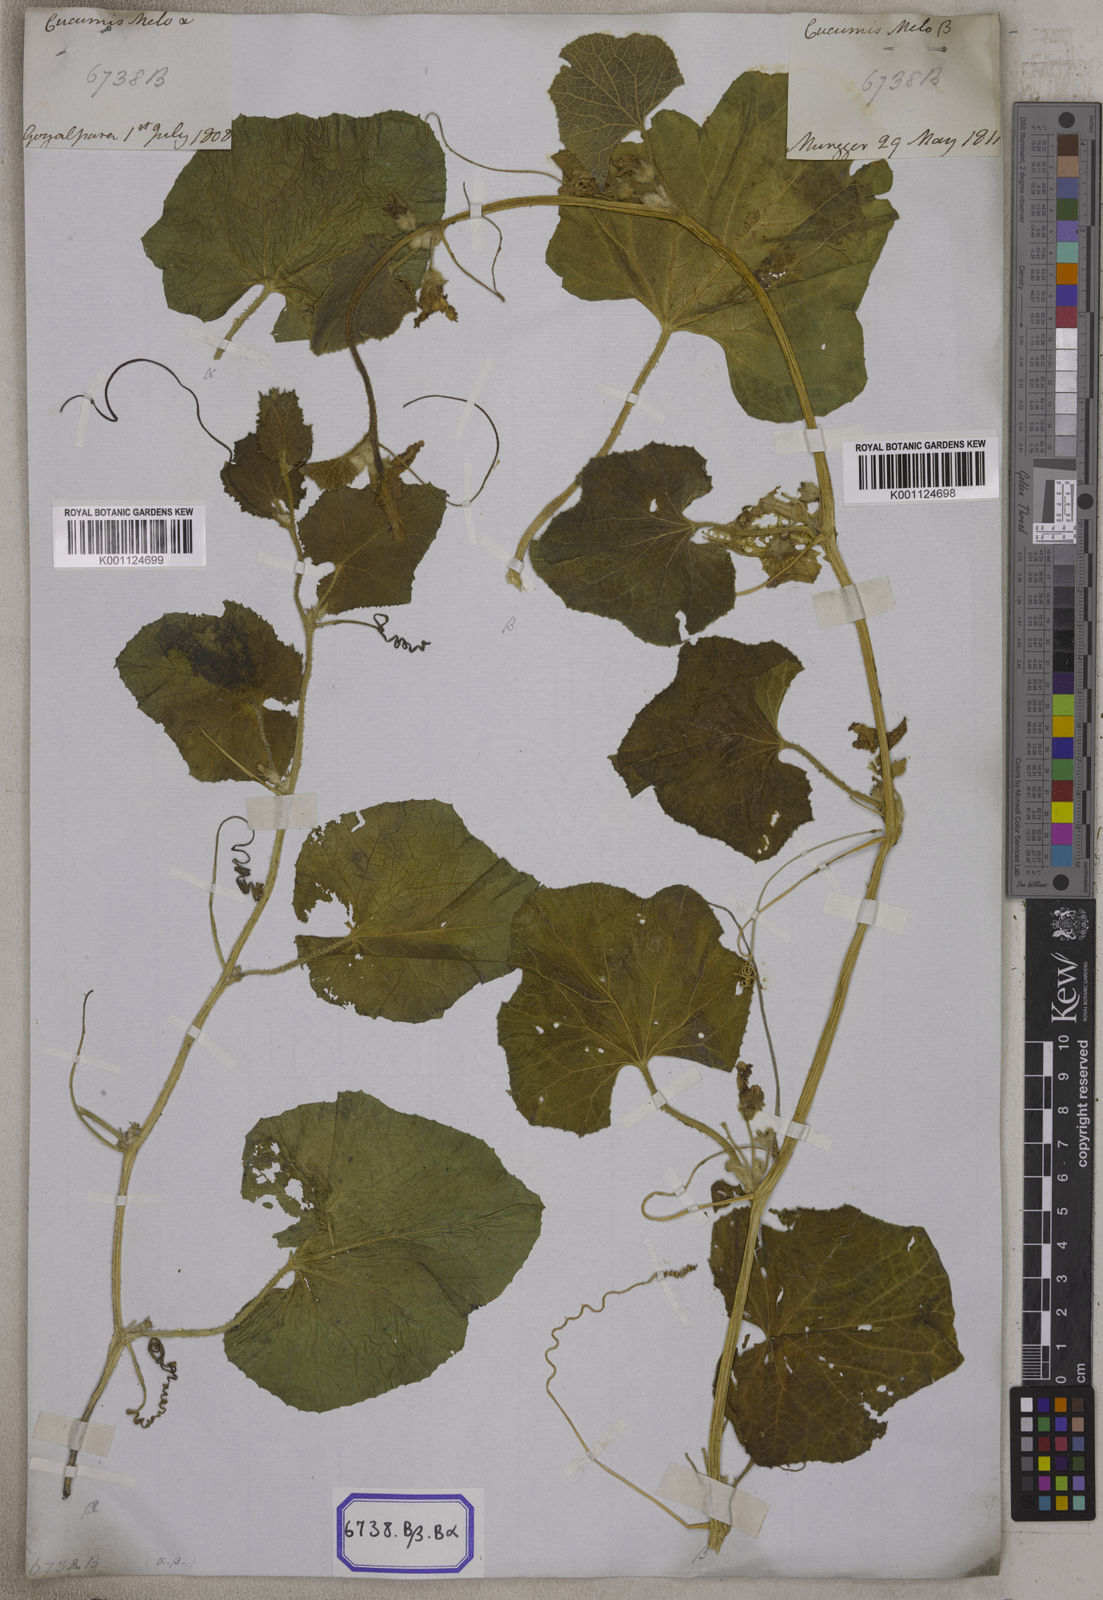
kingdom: Plantae
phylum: Tracheophyta
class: Magnoliopsida
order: Cucurbitales
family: Cucurbitaceae
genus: Cucumis
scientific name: Cucumis melo
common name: Melon
